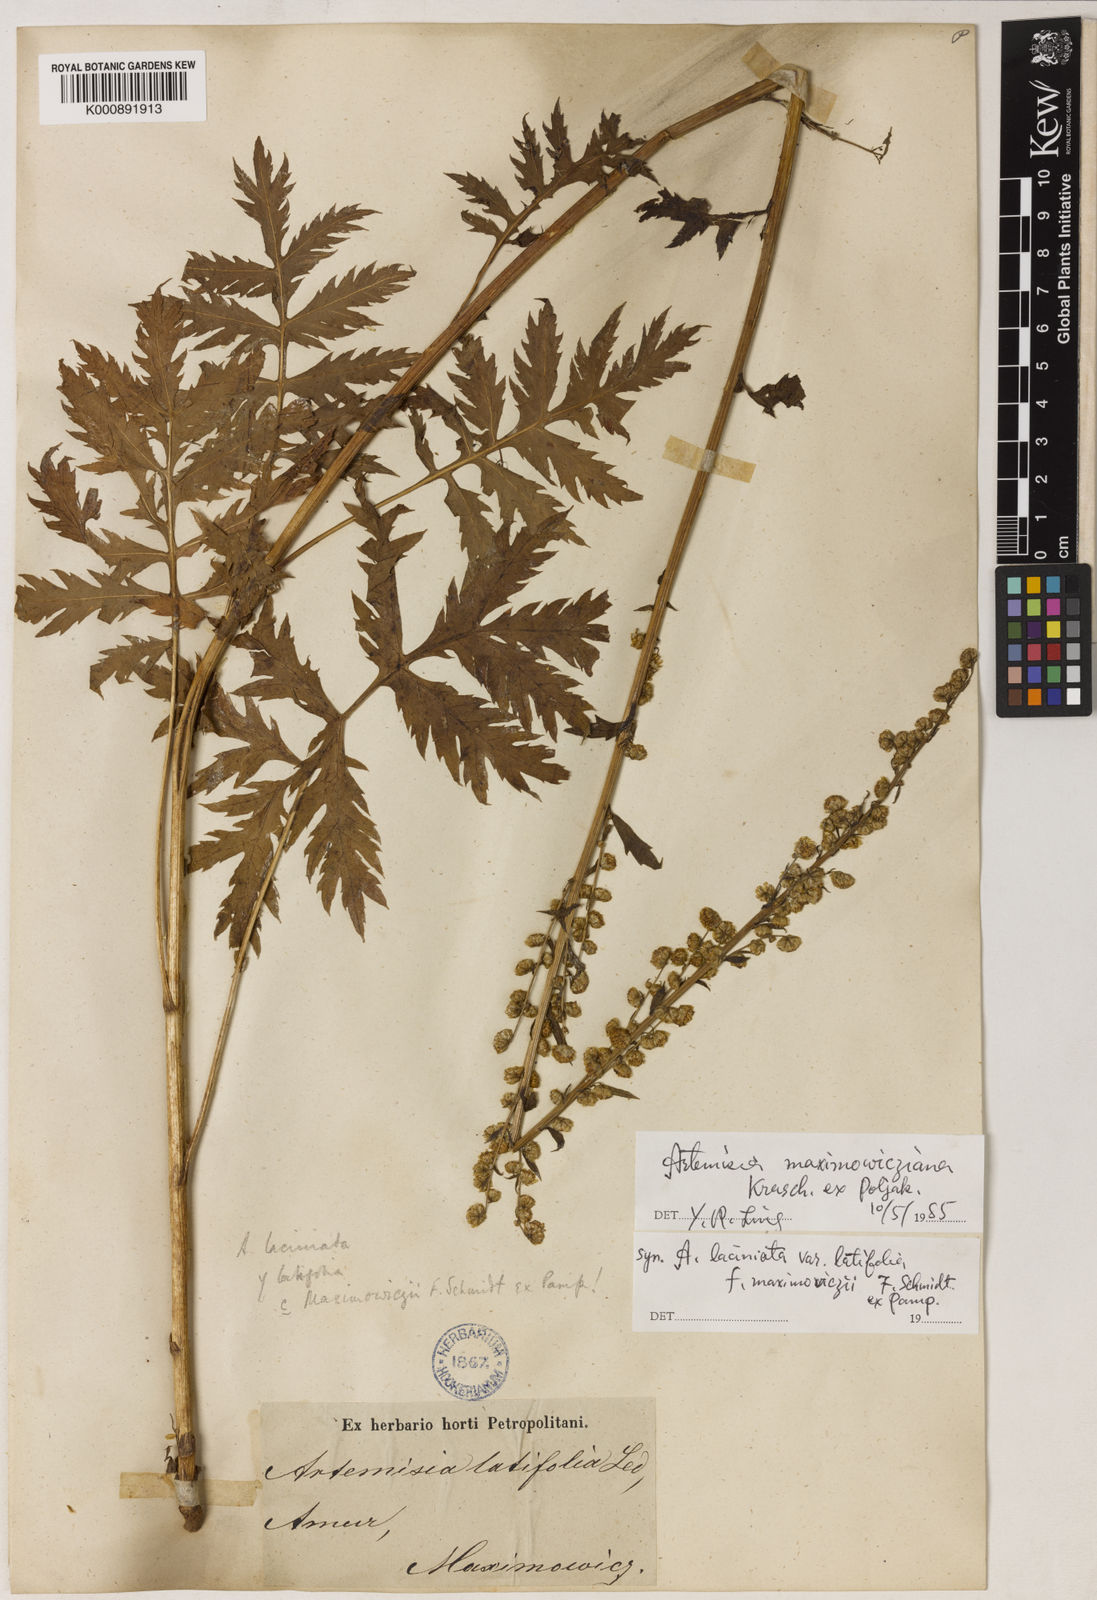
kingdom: Plantae
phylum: Tracheophyta
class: Magnoliopsida
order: Asterales
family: Asteraceae
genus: Artemisia
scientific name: Artemisia laciniata
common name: Siberian wormwood
